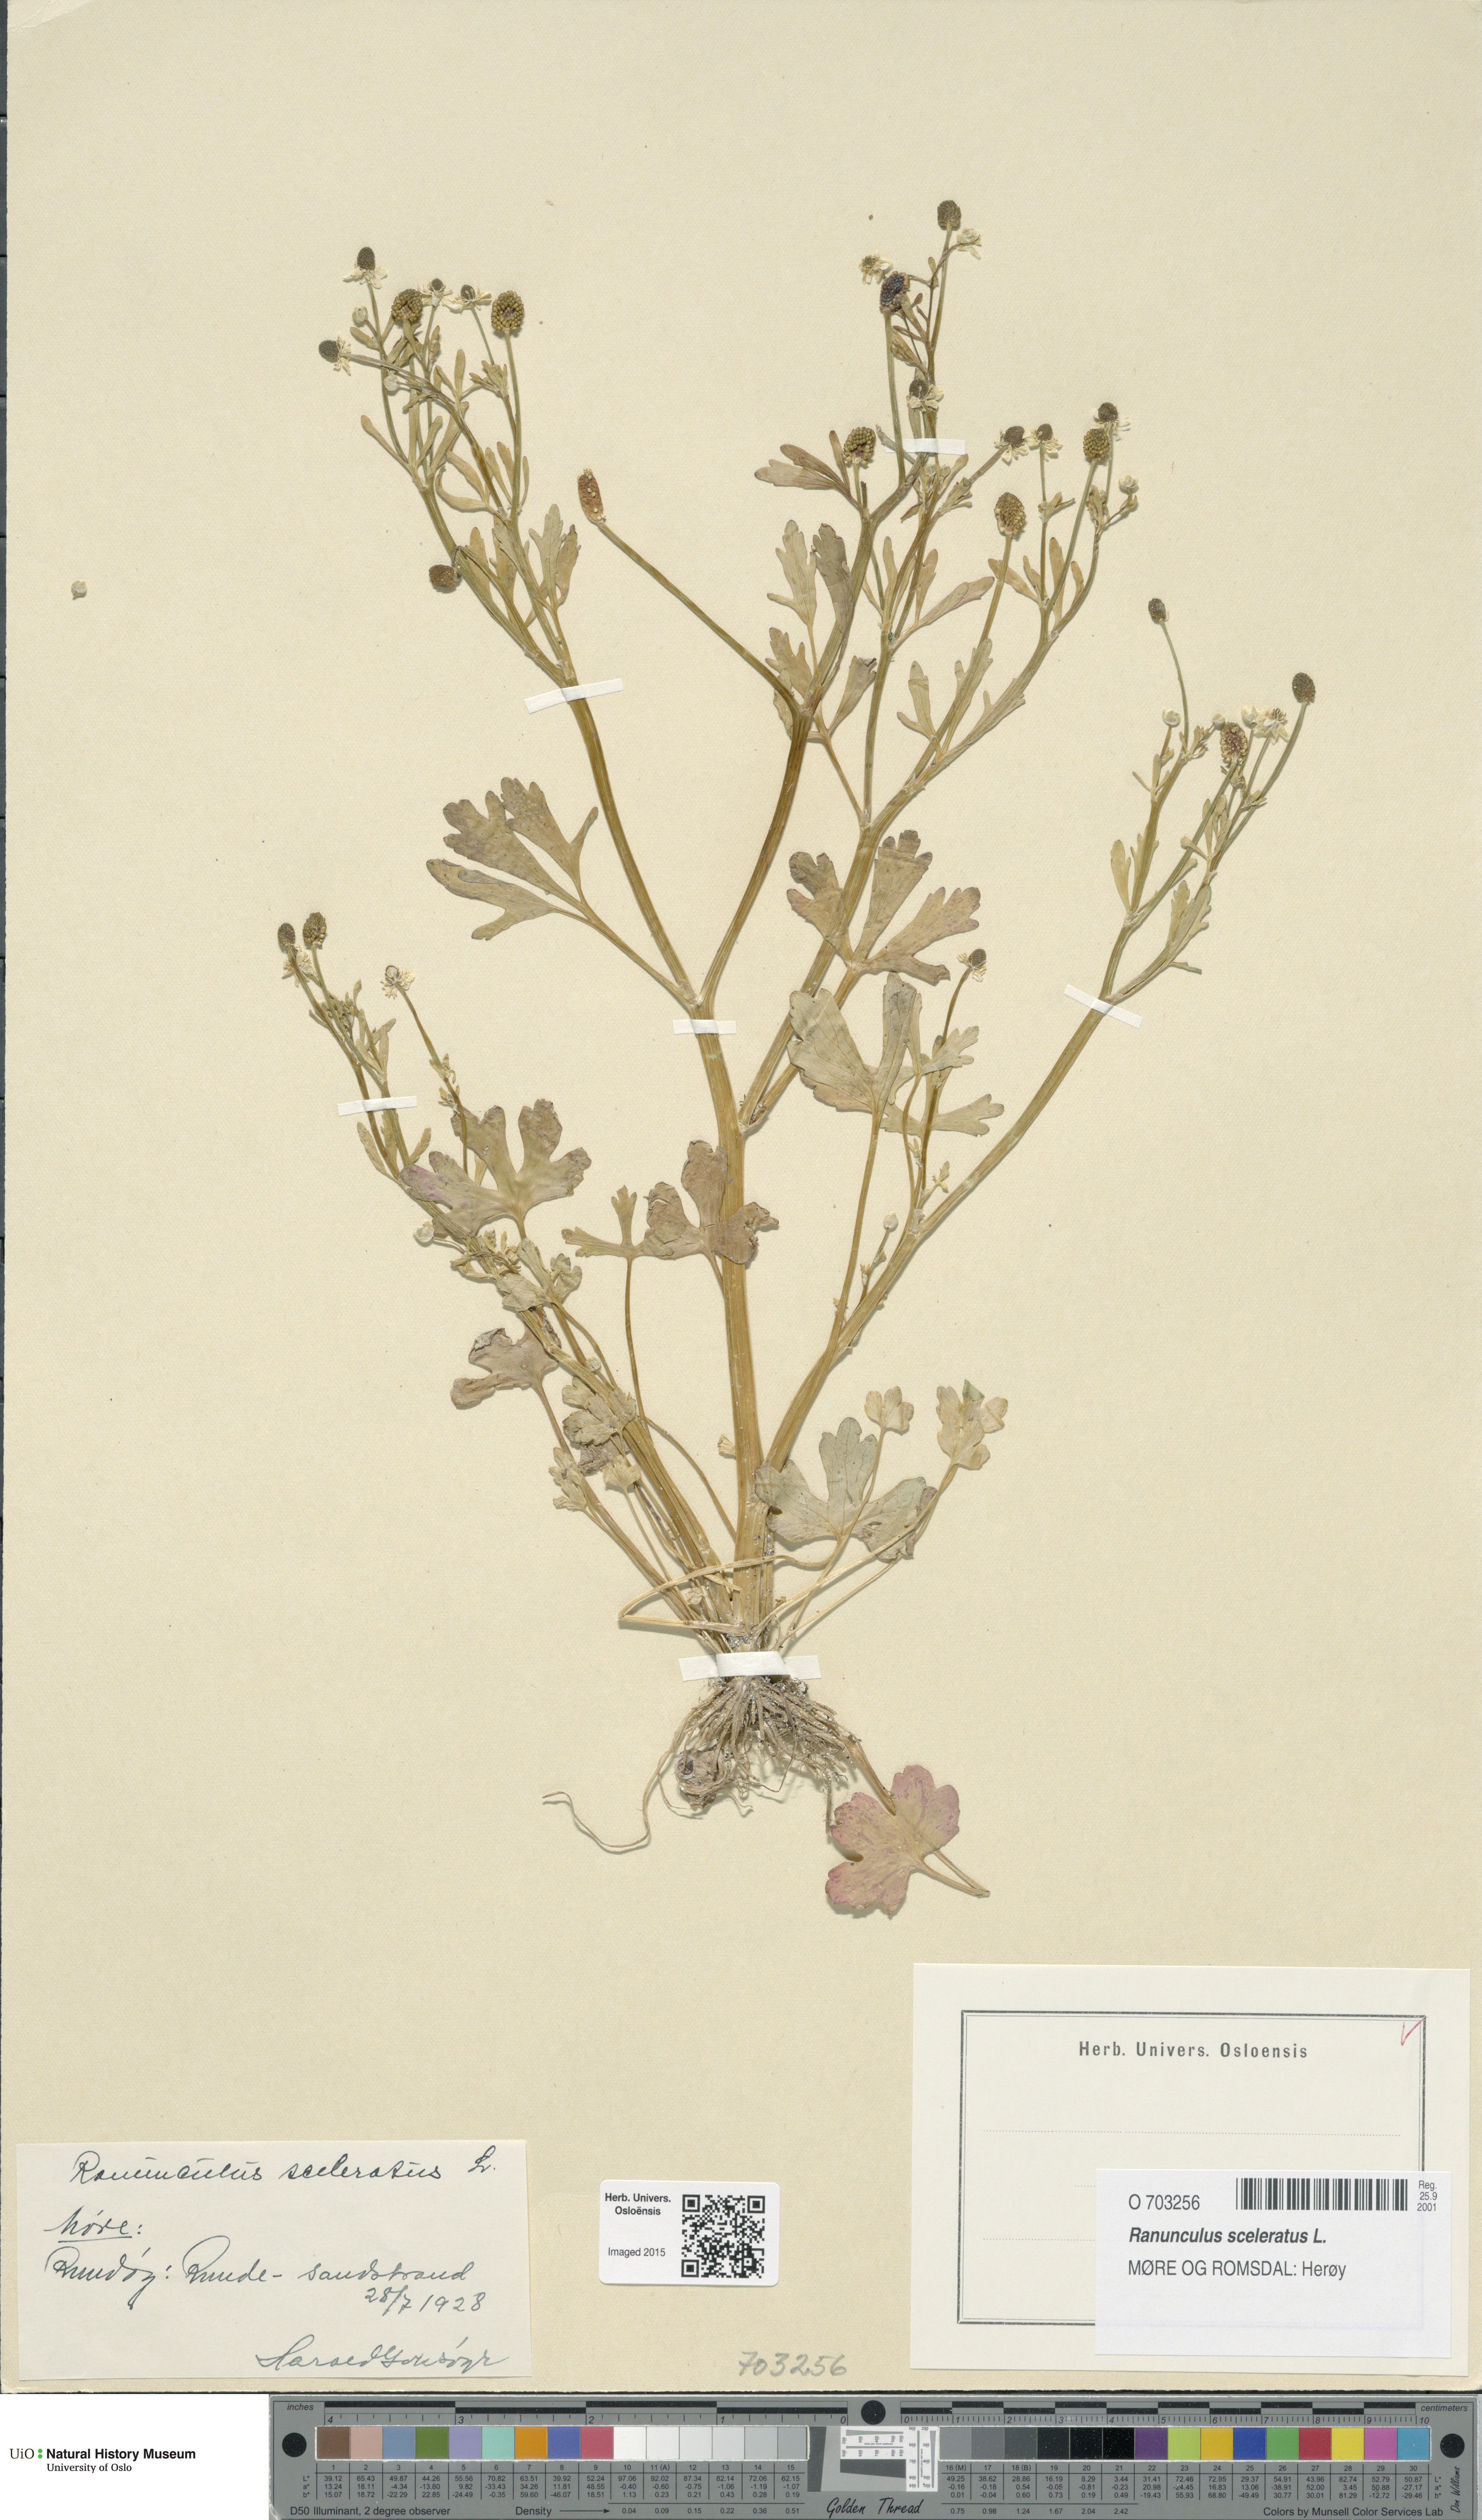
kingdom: Plantae
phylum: Tracheophyta
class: Magnoliopsida
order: Ranunculales
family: Ranunculaceae
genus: Ranunculus
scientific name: Ranunculus sceleratus
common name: Celery-leaved buttercup
